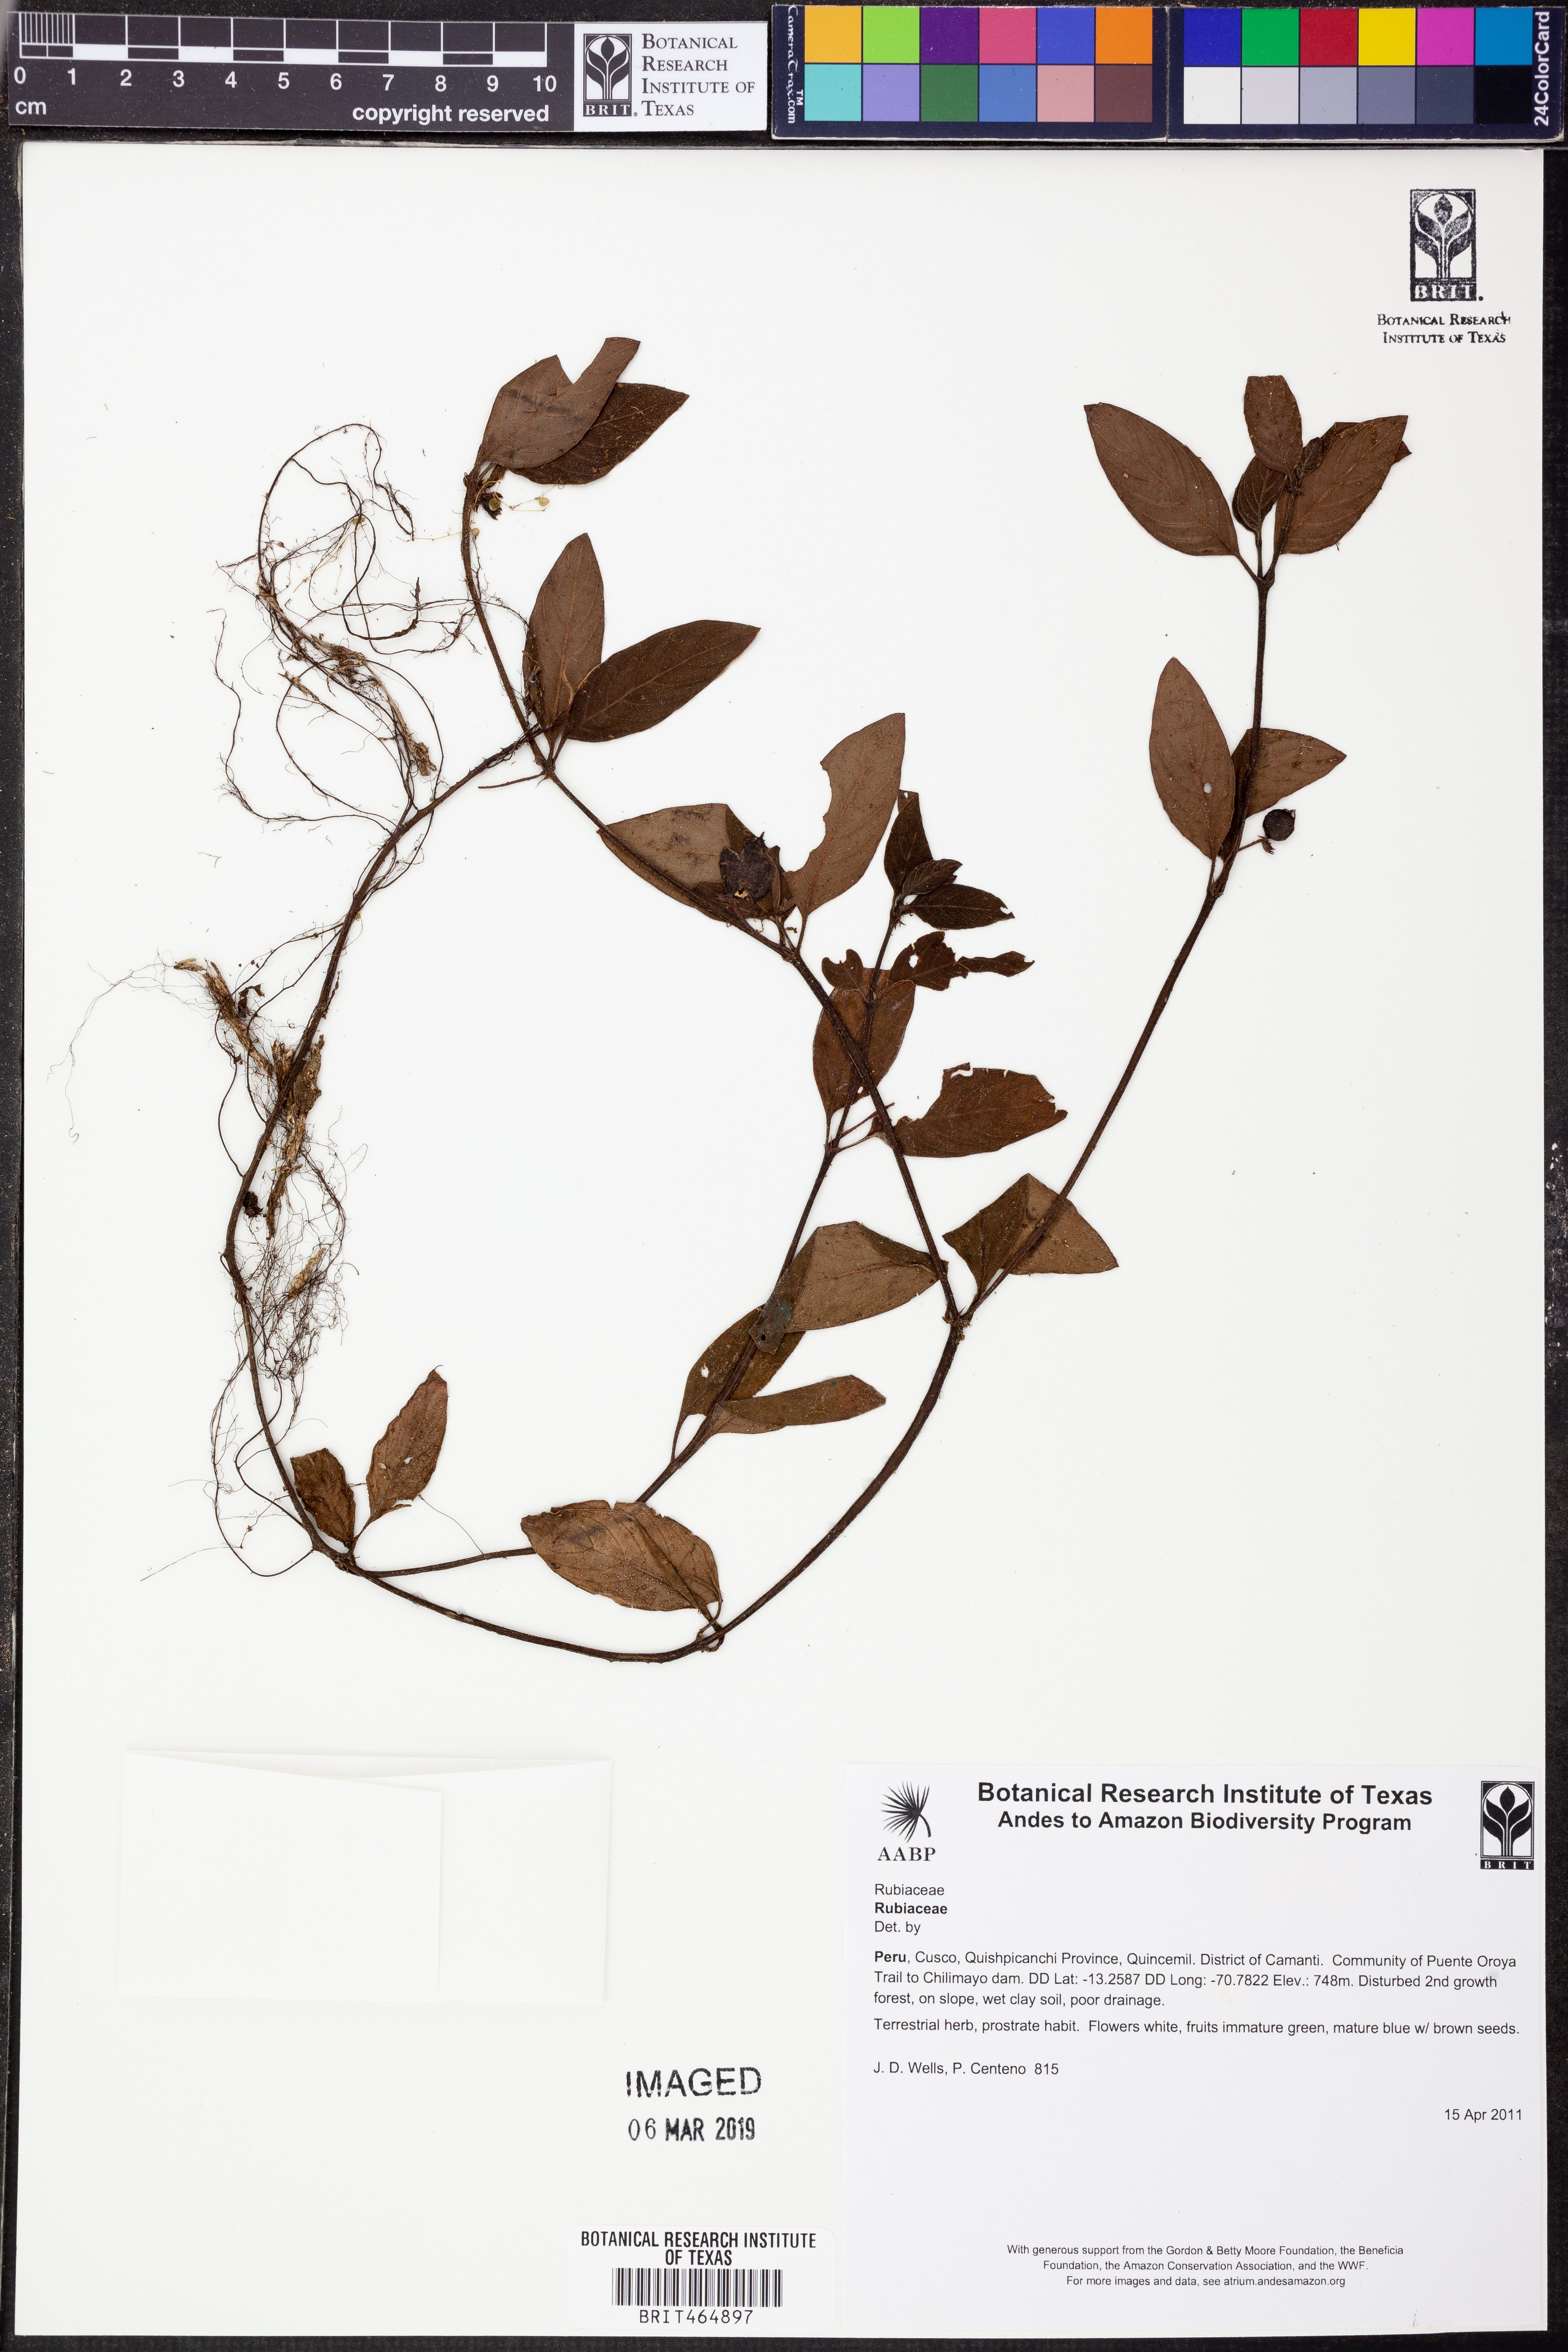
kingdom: Plantae
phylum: Tracheophyta
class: Magnoliopsida
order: Gentianales
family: Rubiaceae
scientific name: Rubiaceae
